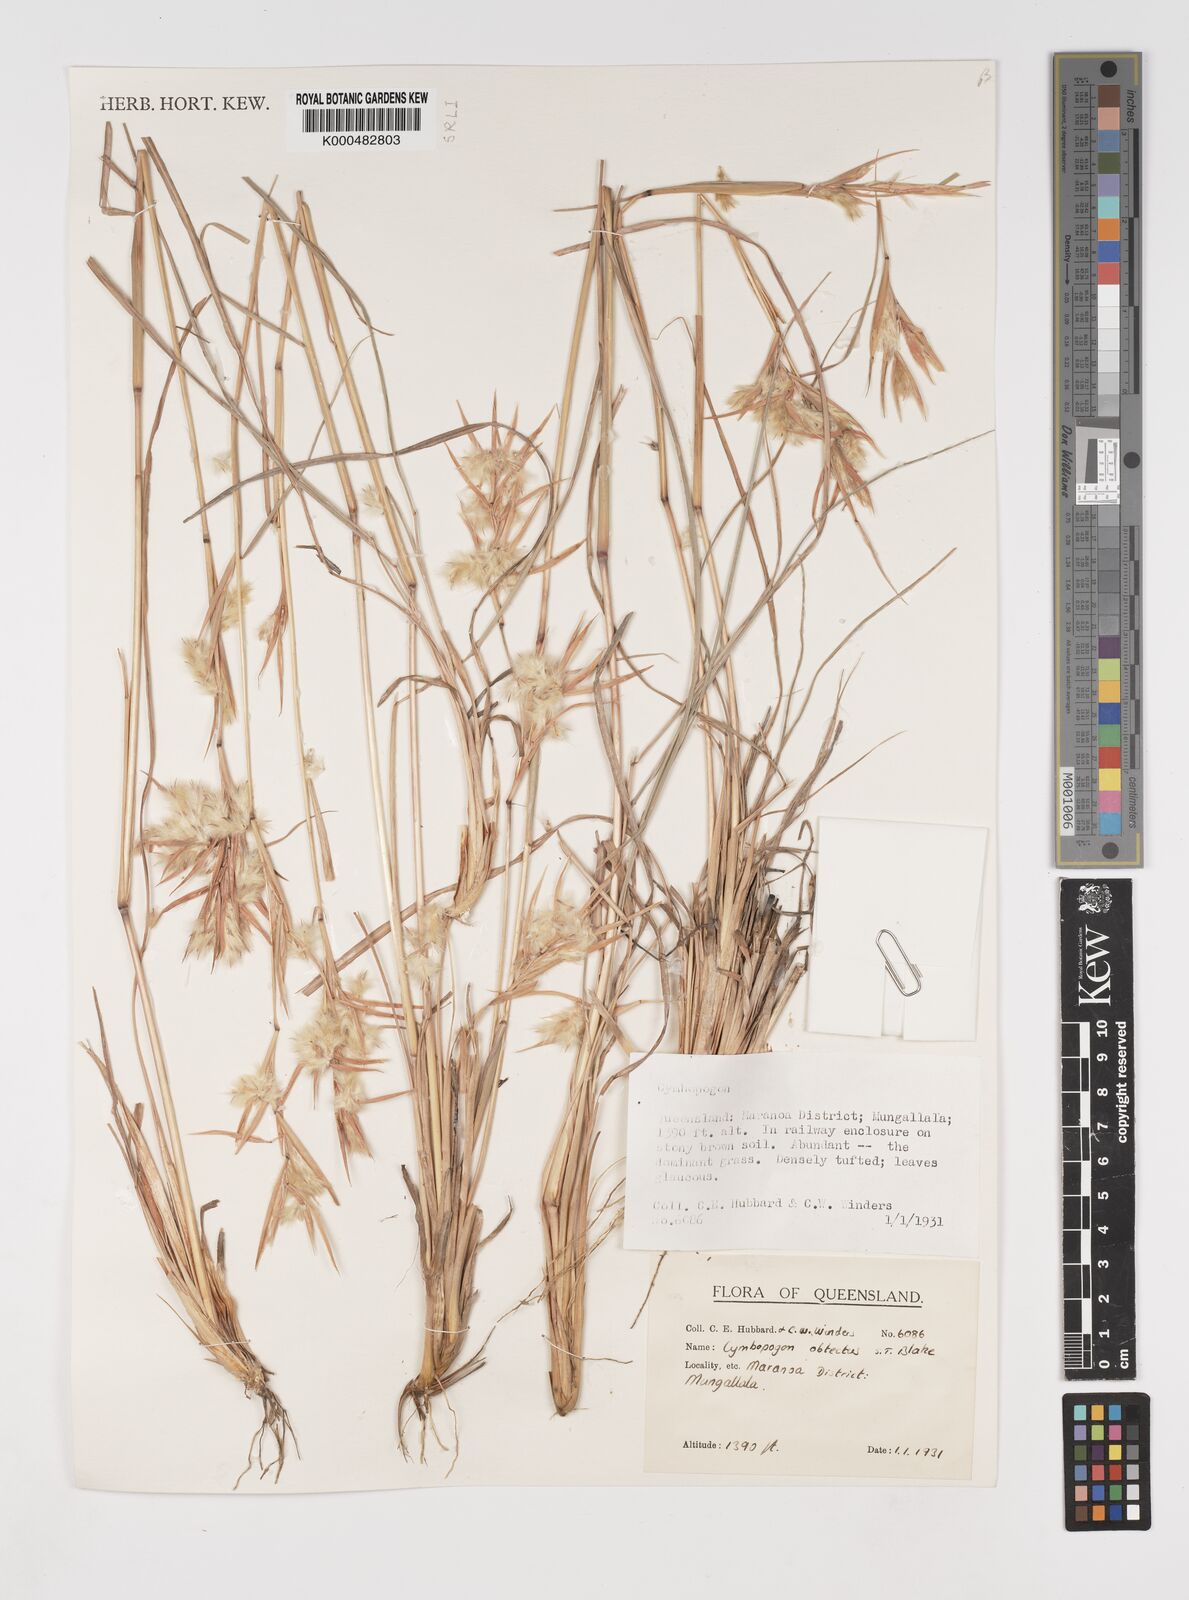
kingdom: Plantae
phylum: Tracheophyta
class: Liliopsida
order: Poales
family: Poaceae
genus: Cymbopogon
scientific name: Cymbopogon obtectus
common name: Silky heads
